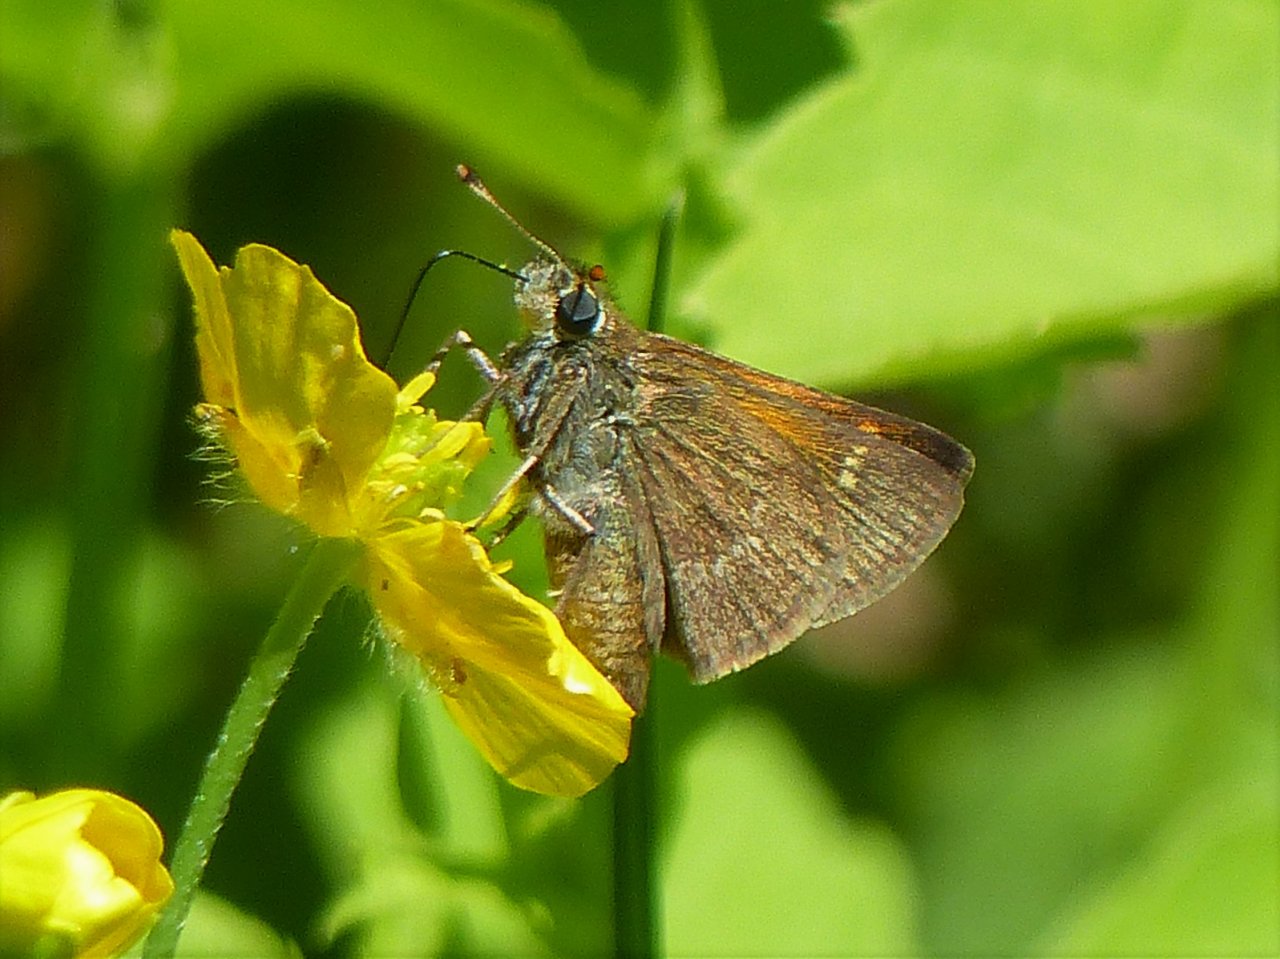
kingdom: Animalia
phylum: Arthropoda
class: Insecta
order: Lepidoptera
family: Hesperiidae
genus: Polites
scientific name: Polites themistocles
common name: Tawny-edged Skipper
